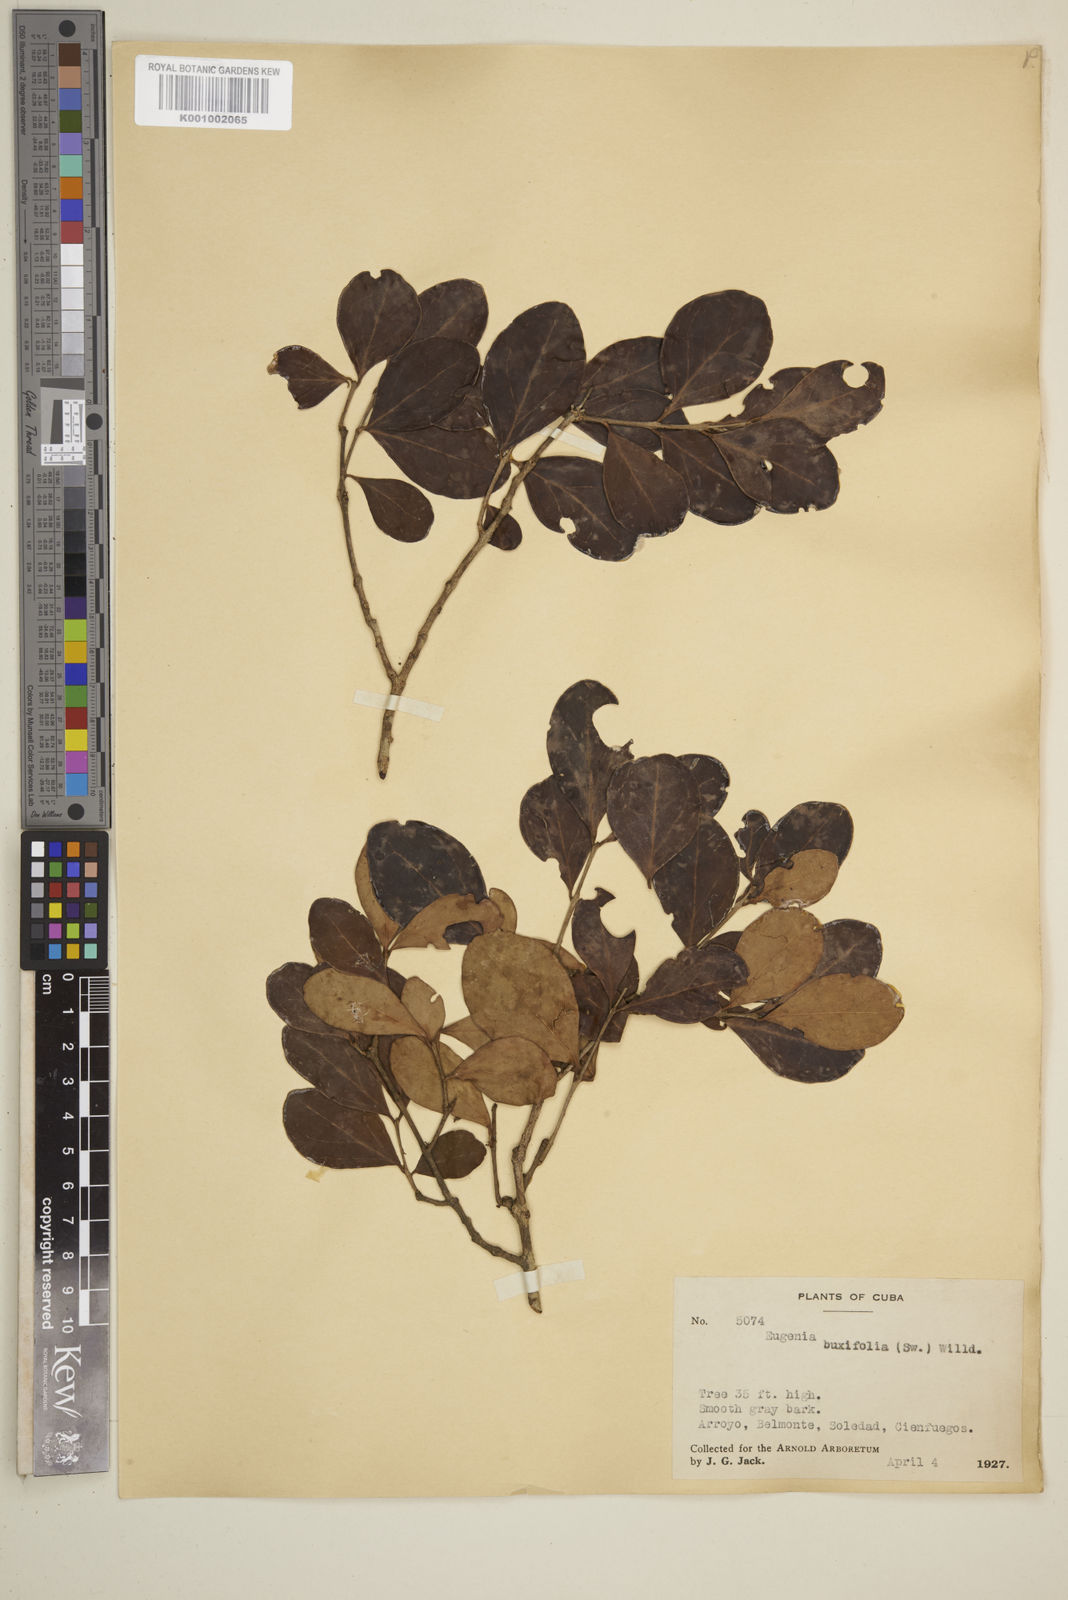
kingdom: Plantae
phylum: Tracheophyta
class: Magnoliopsida
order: Myrtales
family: Myrtaceae
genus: Eugenia
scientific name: Eugenia buxifolia
